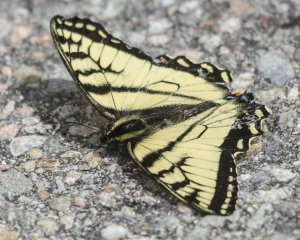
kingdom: Animalia
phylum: Arthropoda
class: Insecta
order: Lepidoptera
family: Papilionidae
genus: Pterourus
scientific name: Pterourus canadensis
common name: Canadian Tiger Swallowtail
